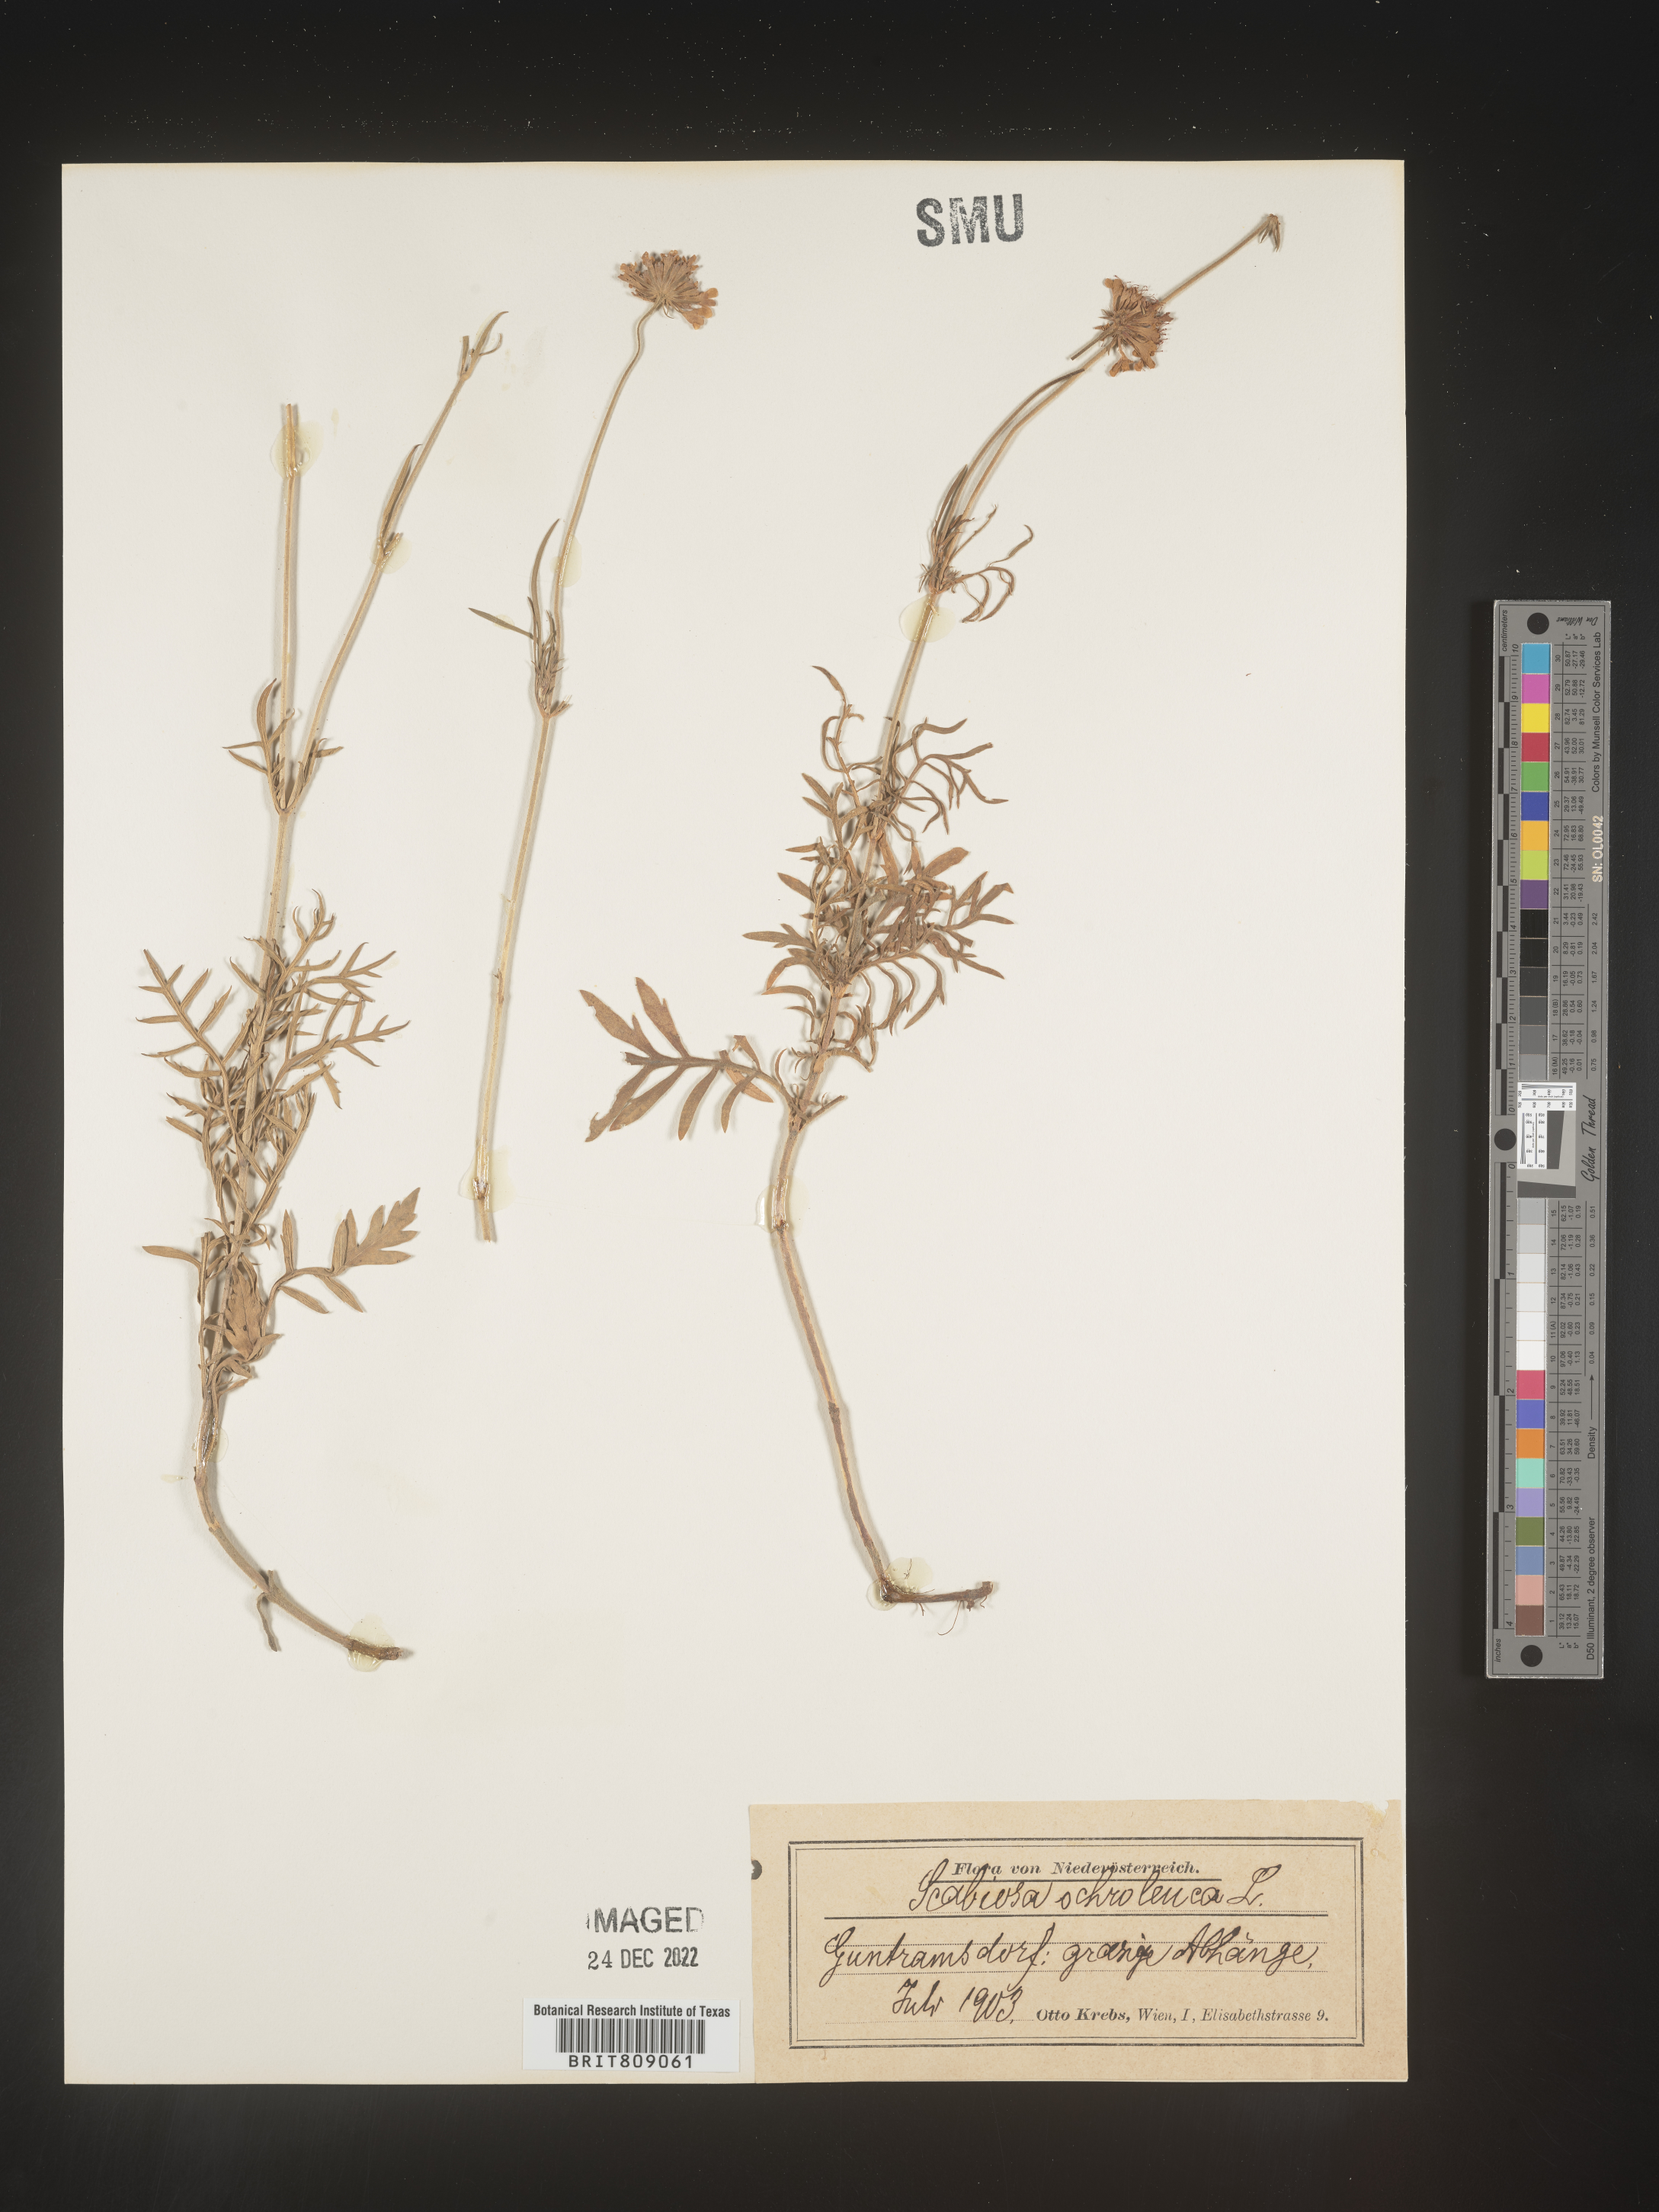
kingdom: Plantae
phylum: Tracheophyta
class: Magnoliopsida
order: Dipsacales
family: Caprifoliaceae
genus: Scabiosa
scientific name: Scabiosa
